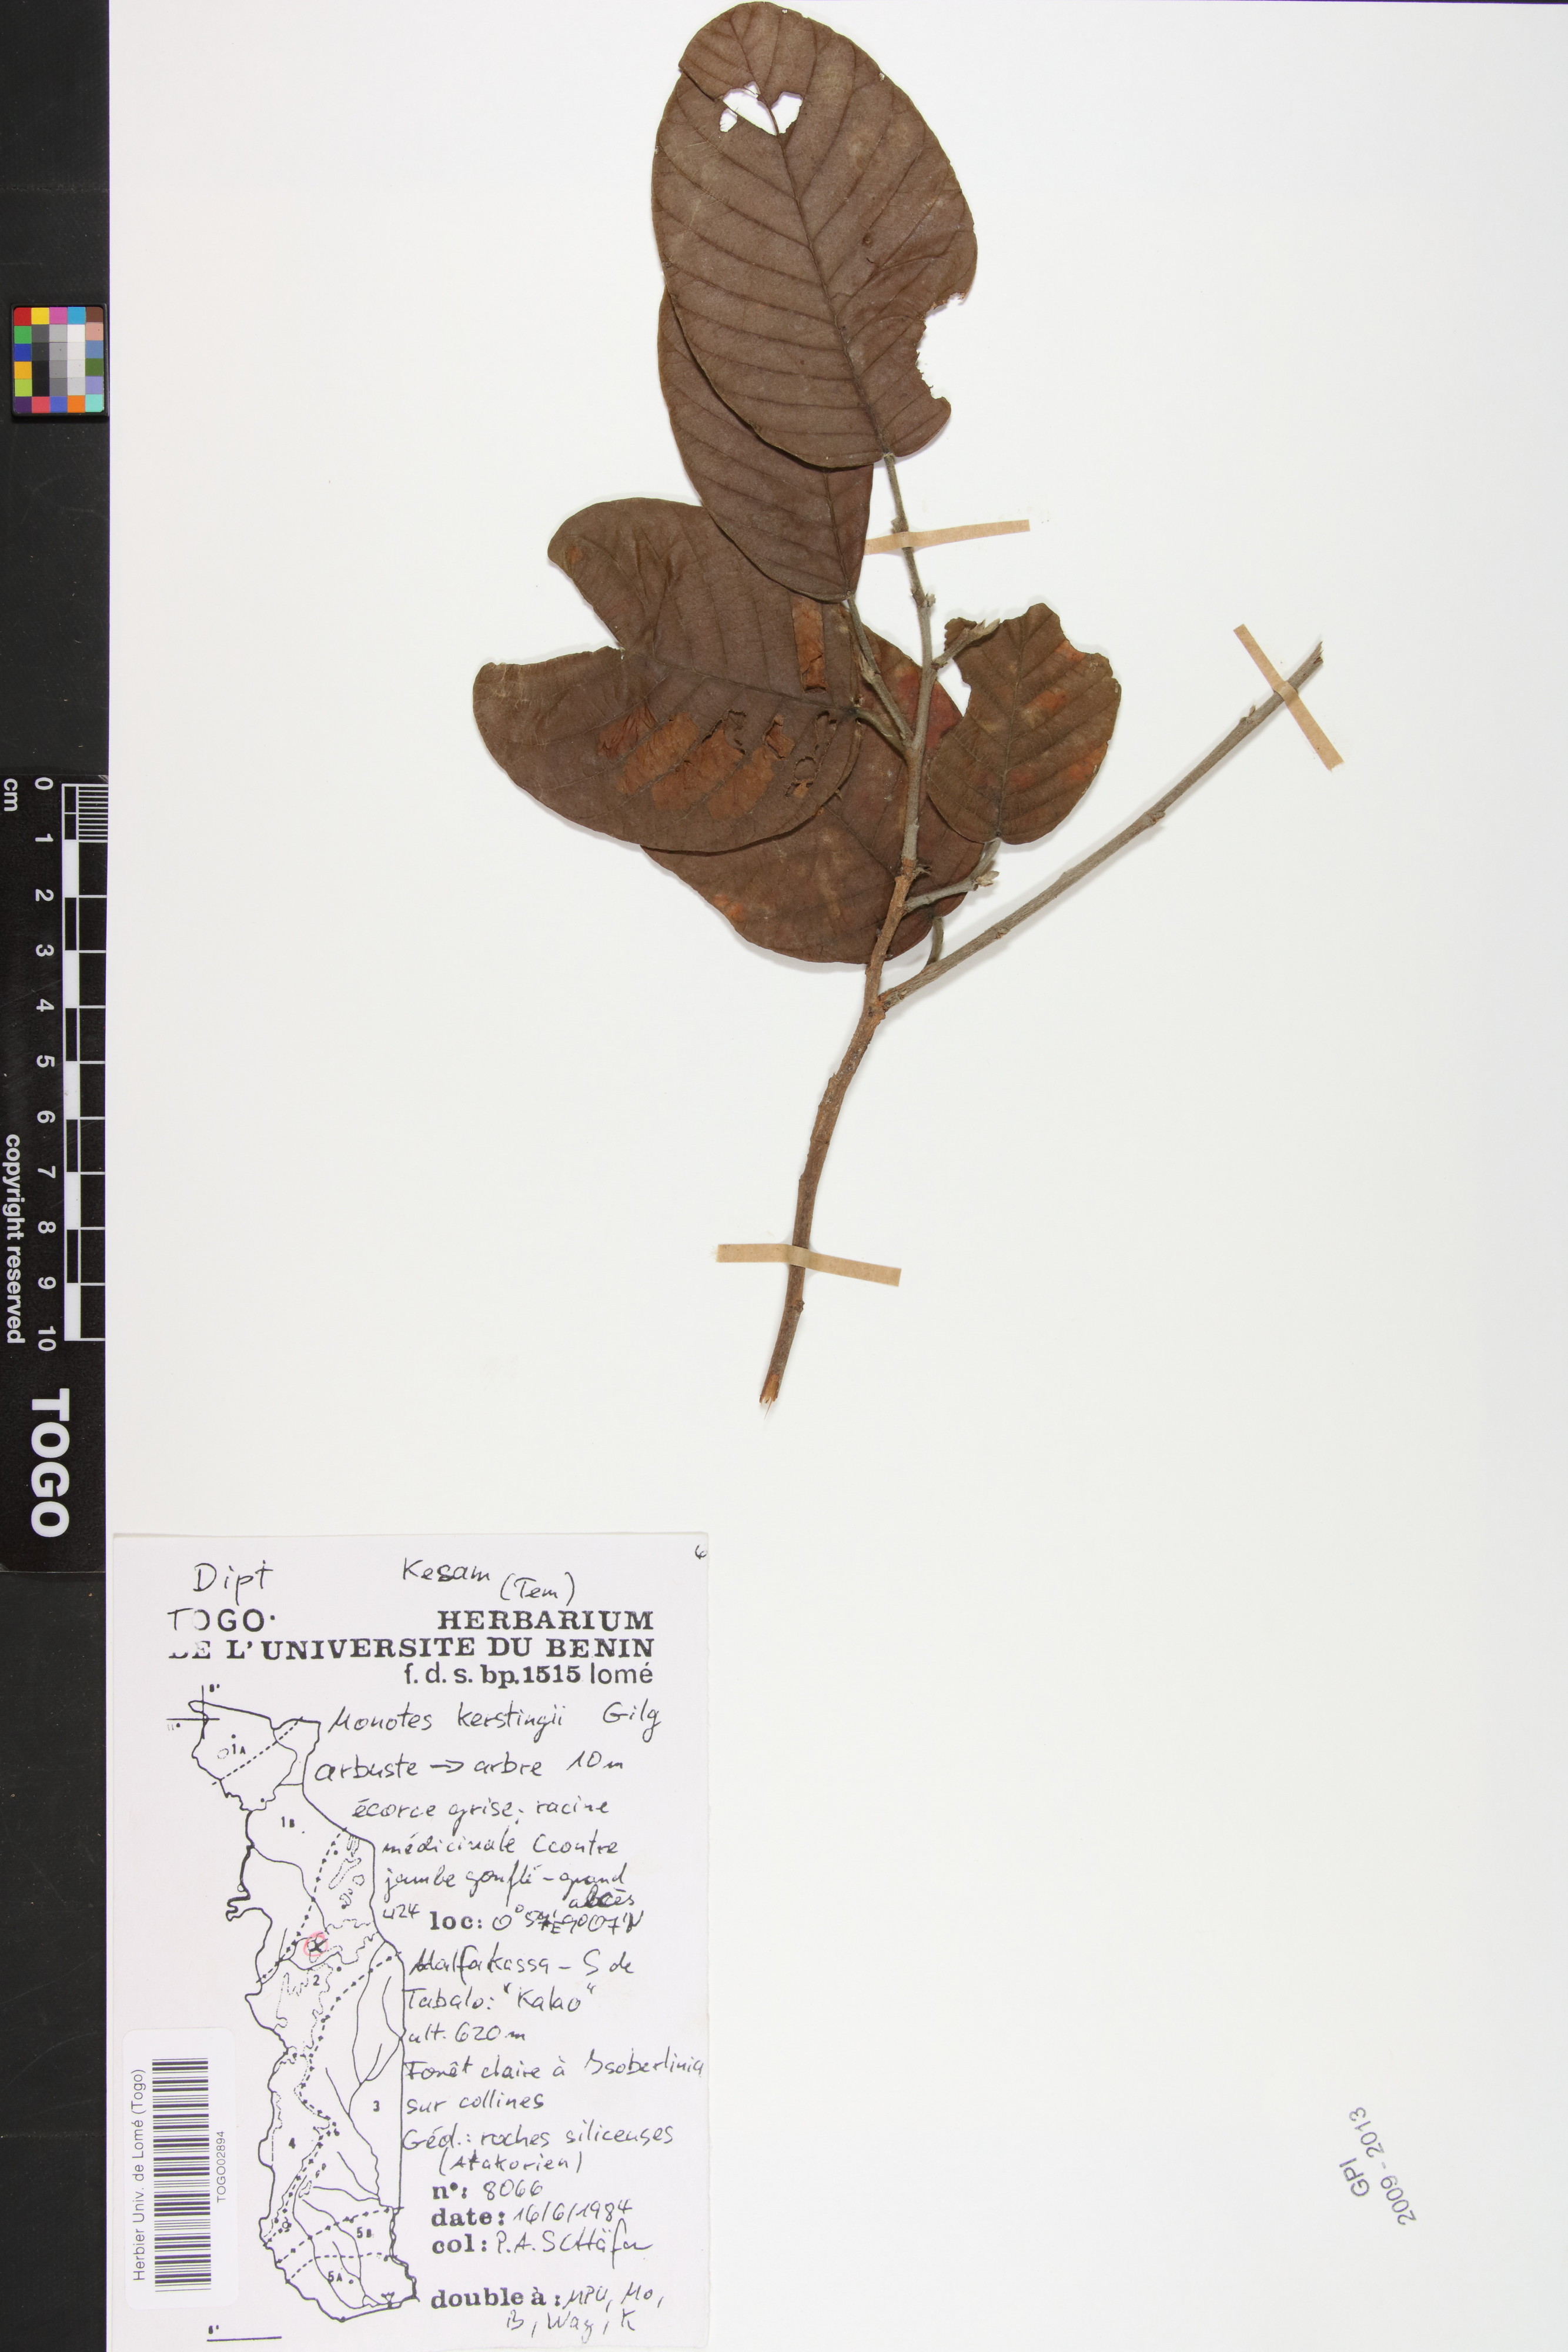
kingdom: Plantae
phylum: Tracheophyta
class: Magnoliopsida
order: Malvales
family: Dipterocarpaceae
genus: Monotes
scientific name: Monotes kerstingii
